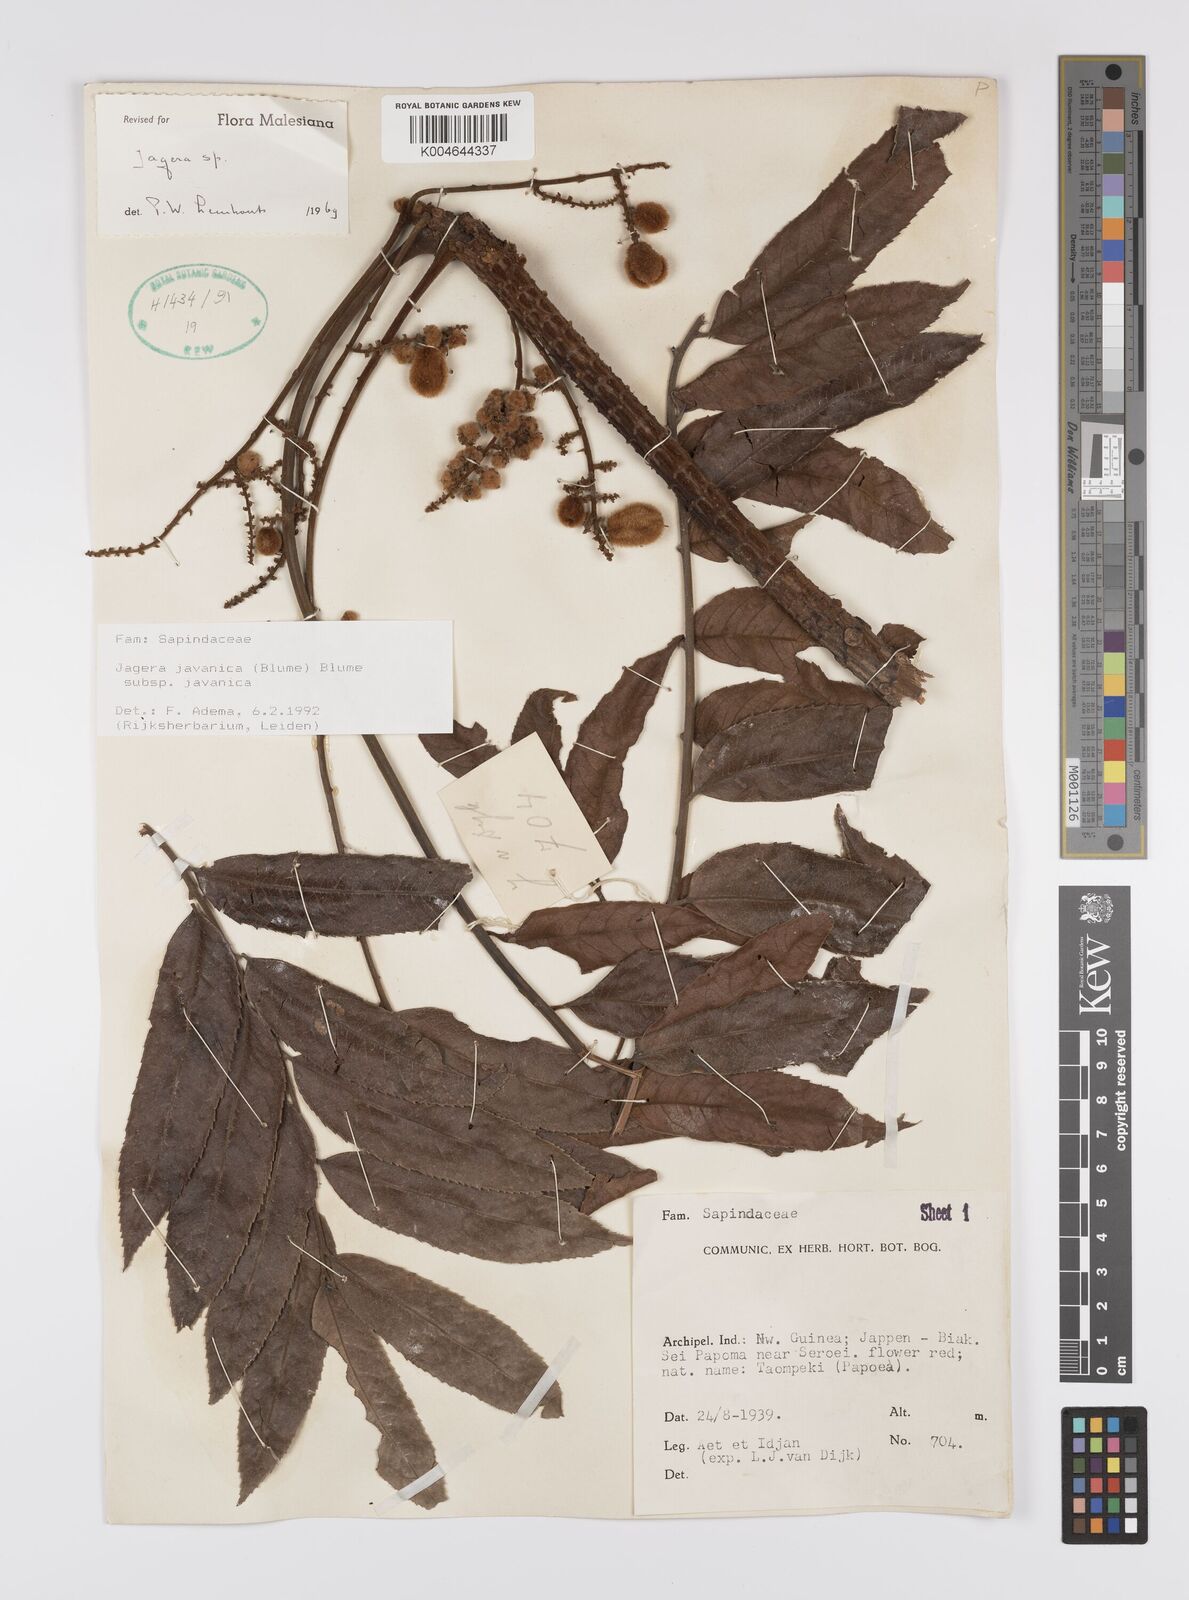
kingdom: Plantae
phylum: Tracheophyta
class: Magnoliopsida
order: Sapindales
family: Sapindaceae
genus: Jagera
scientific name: Jagera javanica
